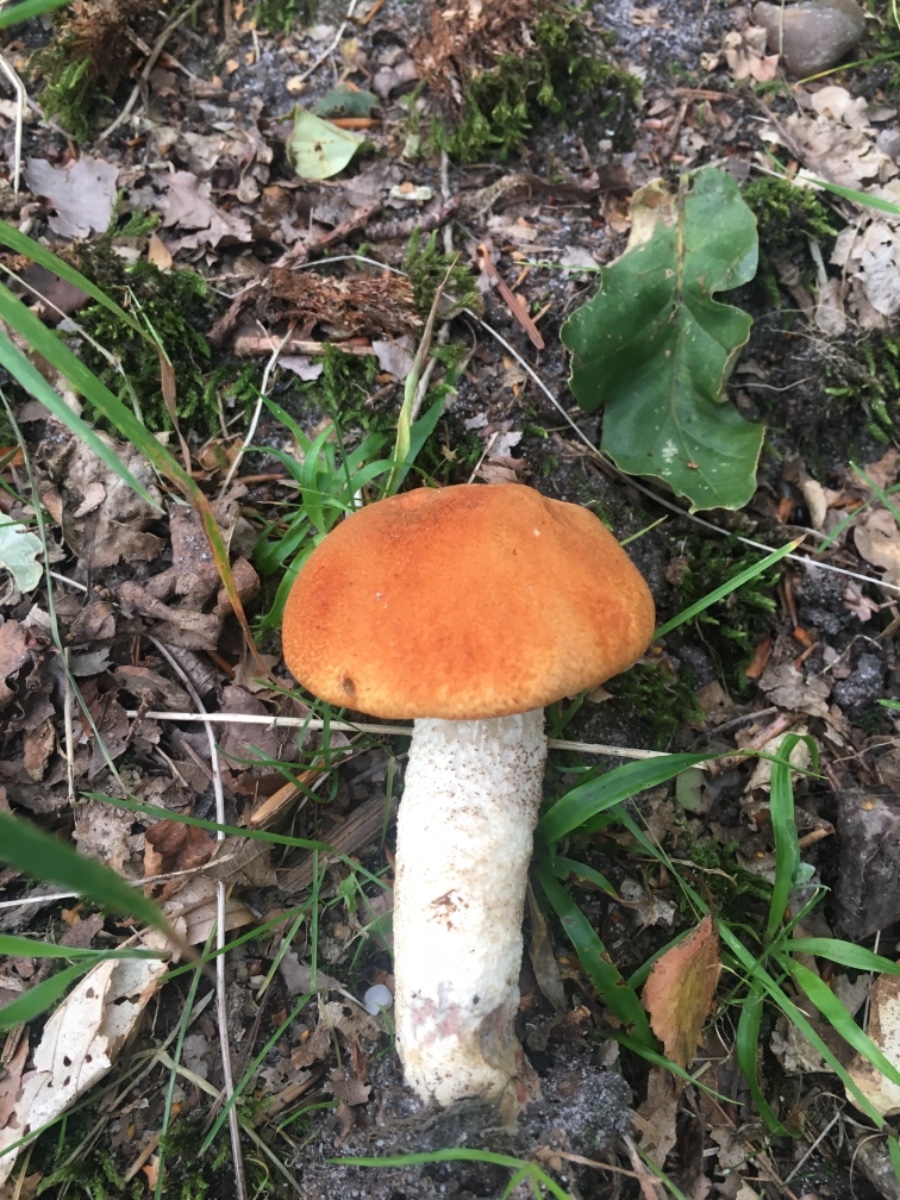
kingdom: Fungi
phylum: Basidiomycota
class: Agaricomycetes
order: Boletales
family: Boletaceae
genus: Leccinum
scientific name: Leccinum albostipitatum
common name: aspe-skælrørhat
